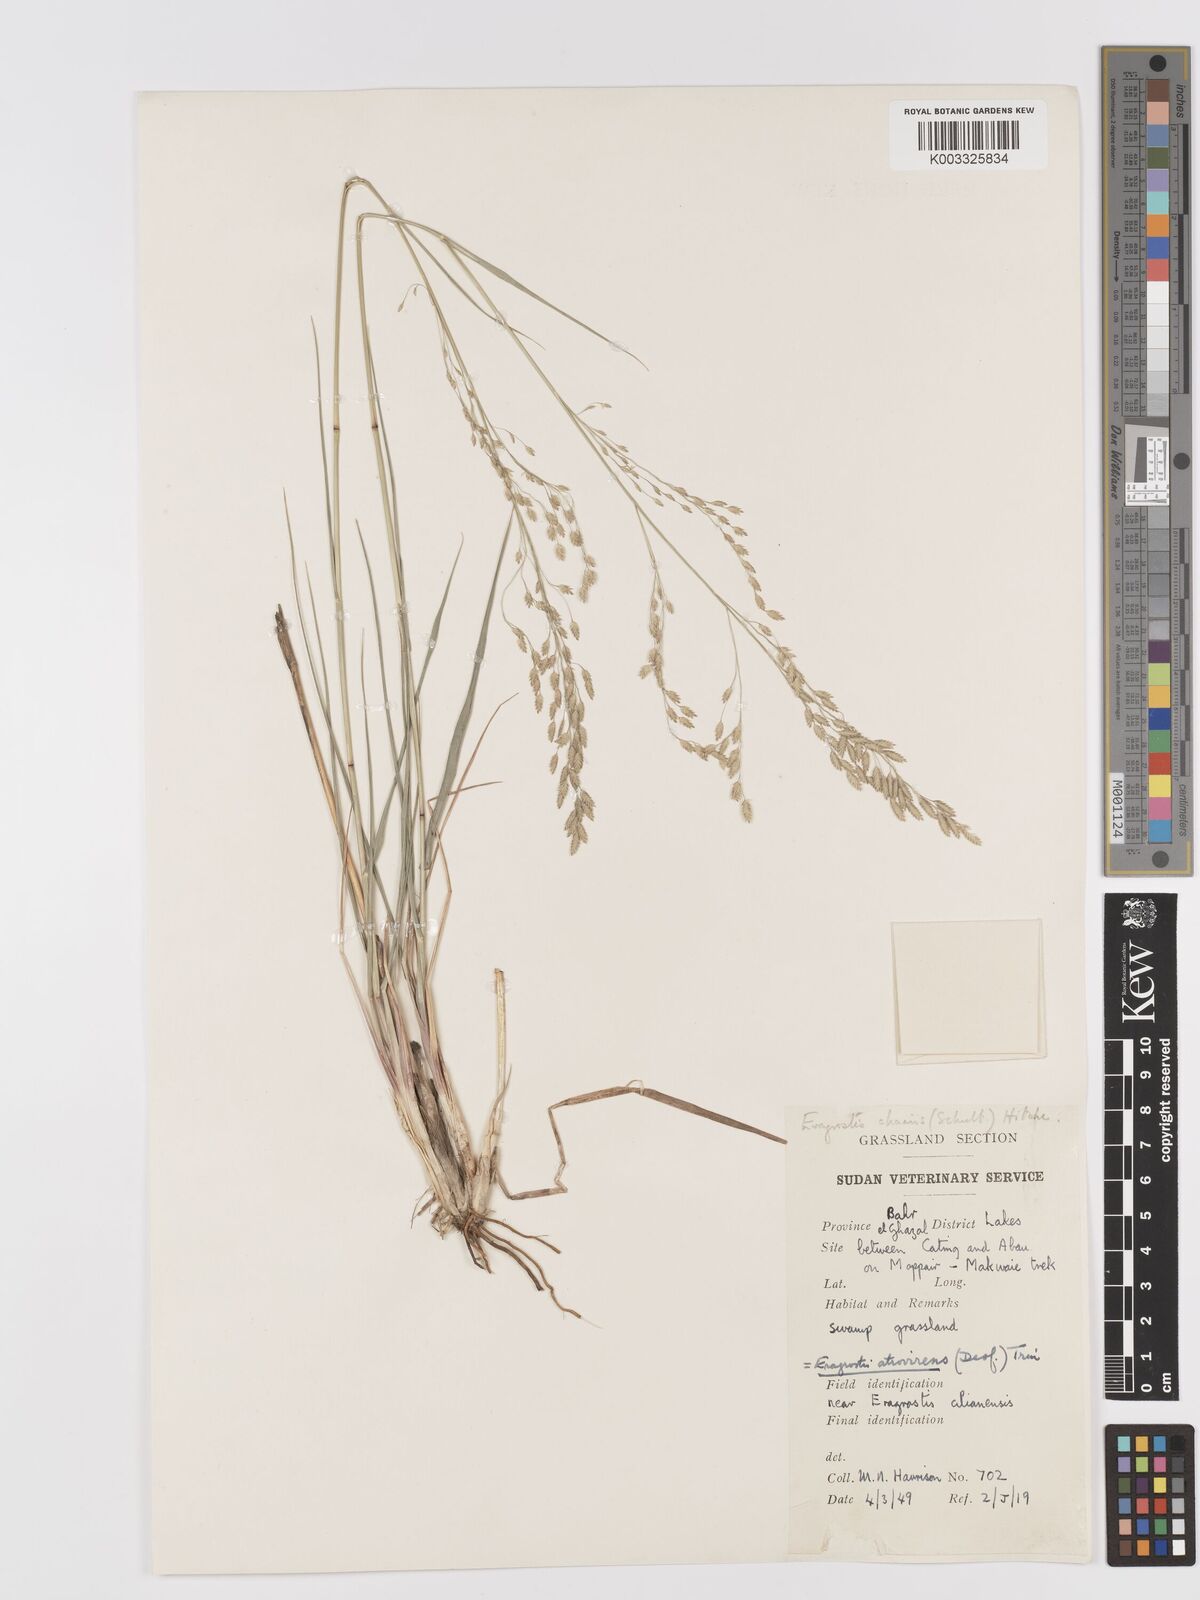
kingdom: Plantae
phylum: Tracheophyta
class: Liliopsida
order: Poales
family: Poaceae
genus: Eragrostis
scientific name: Eragrostis atrovirens
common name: Thalia lovegrass
